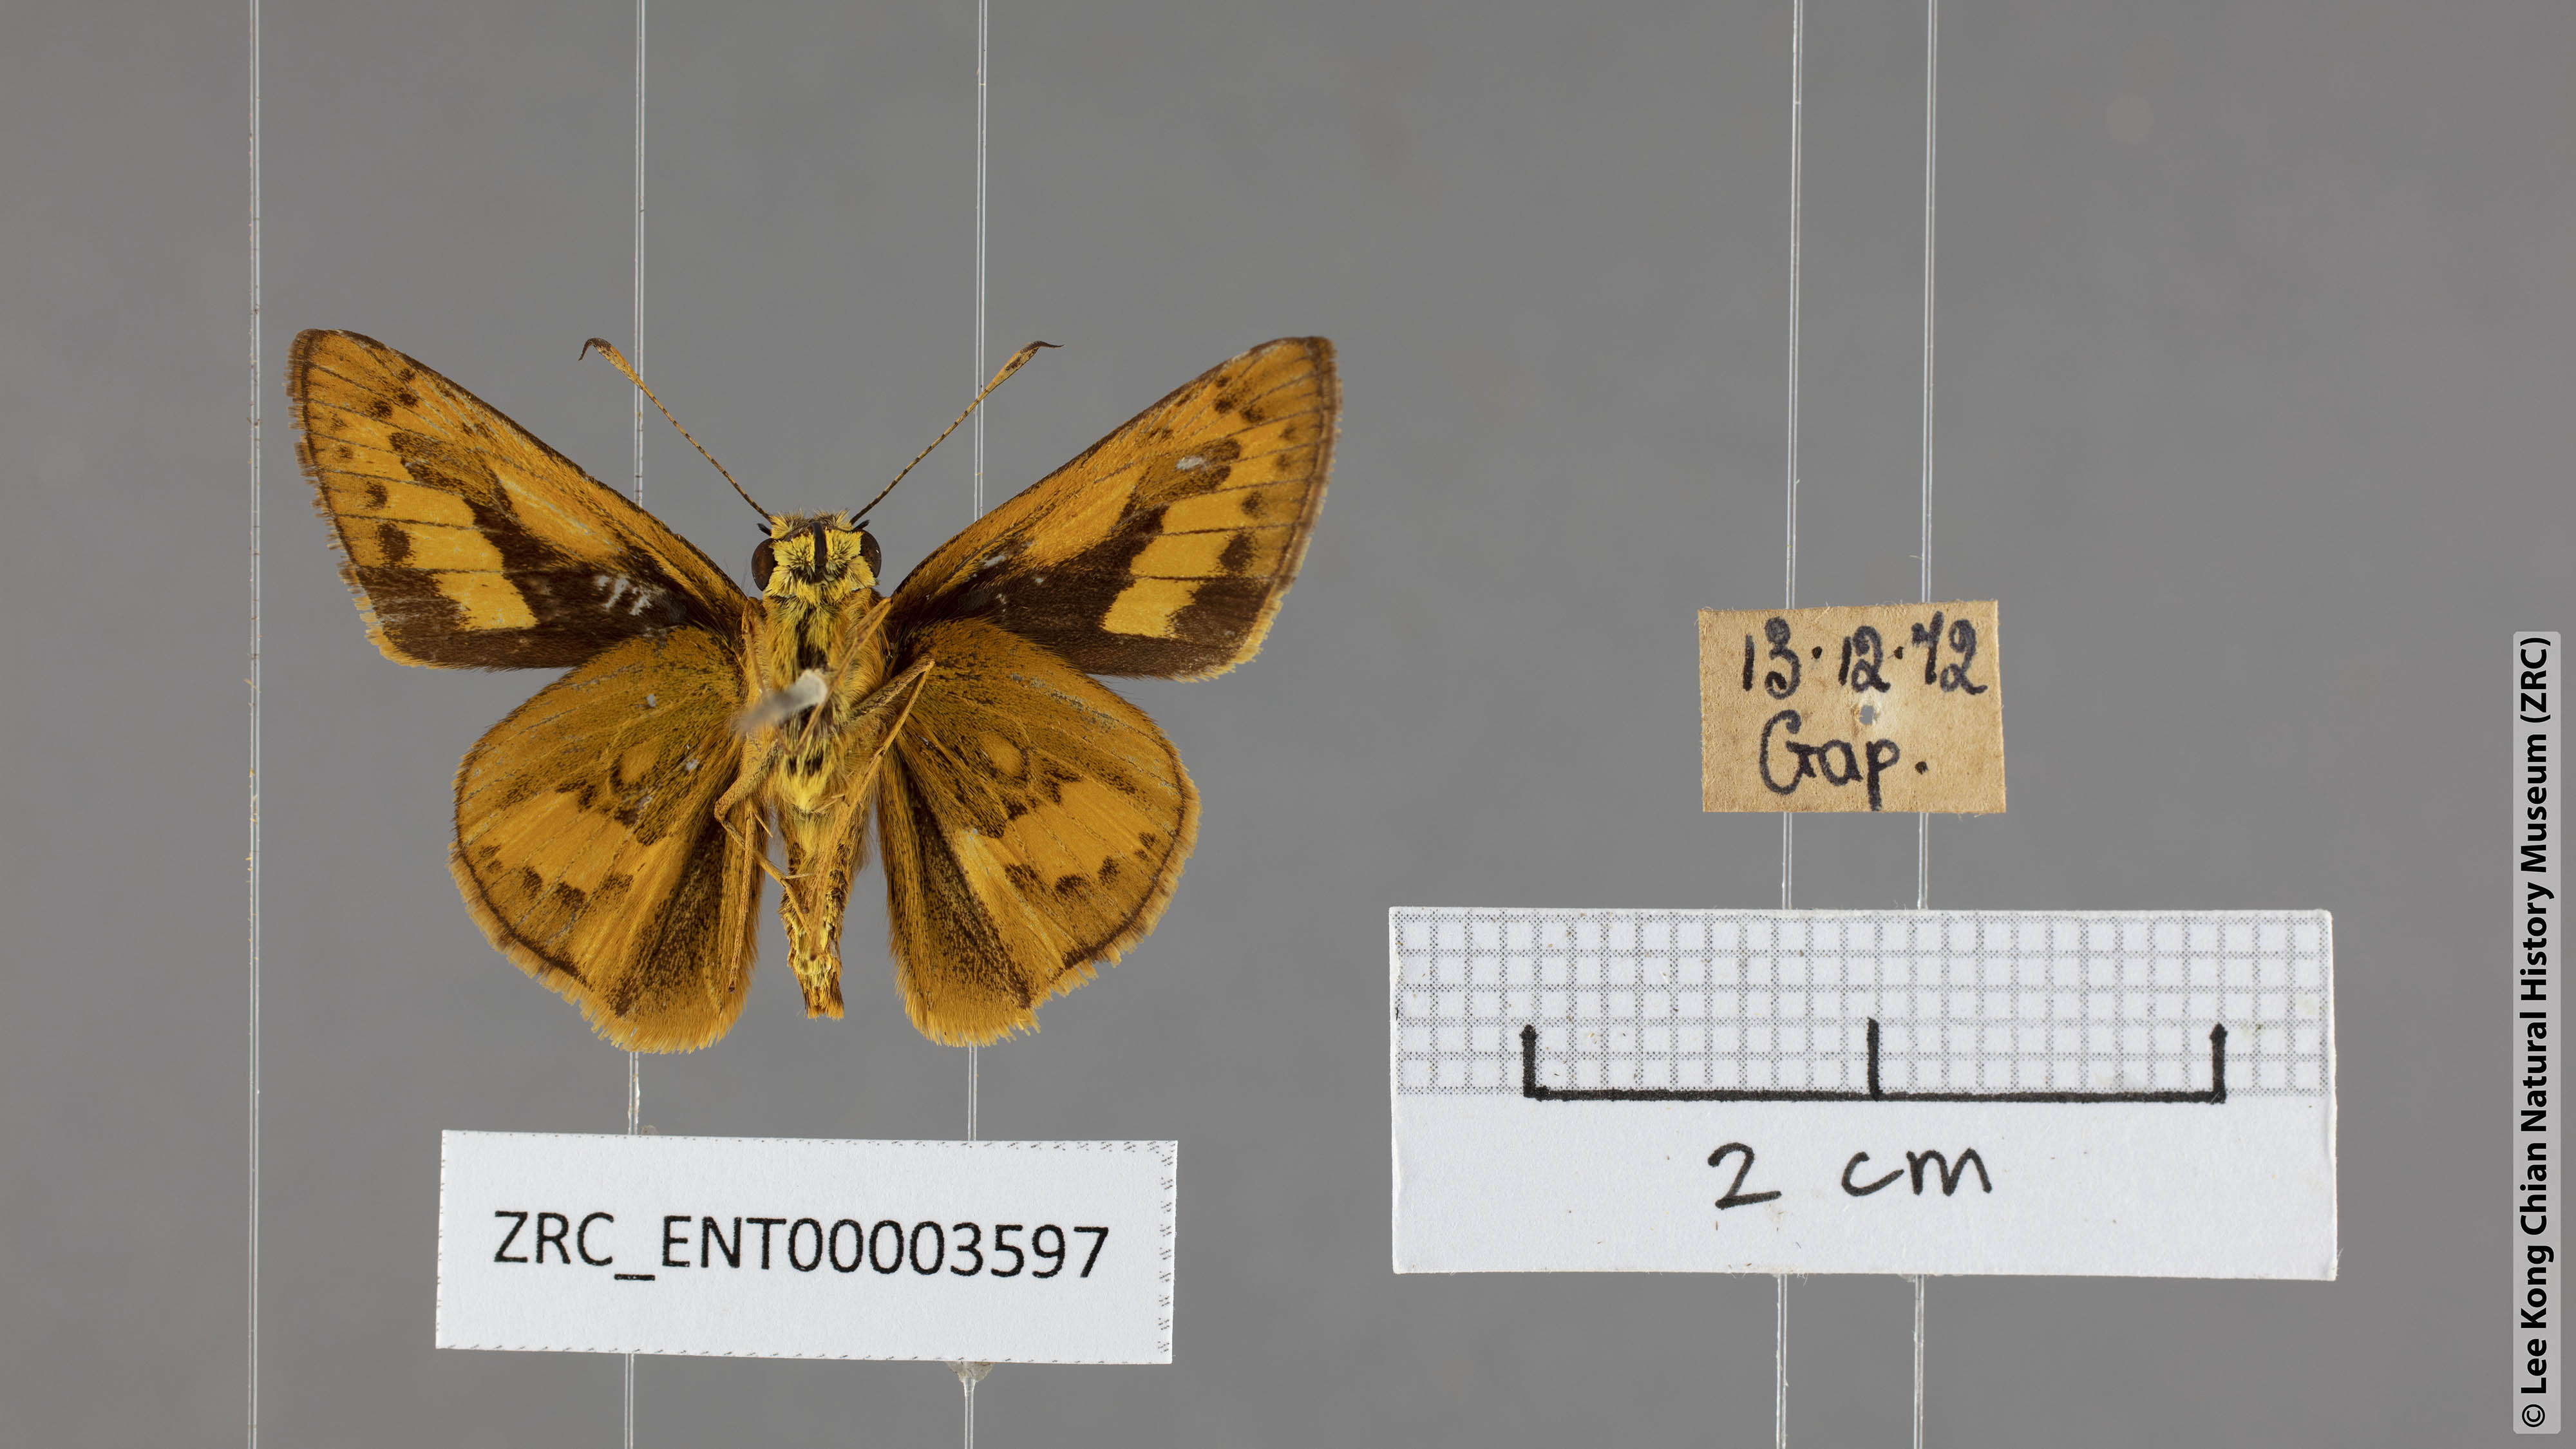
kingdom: Animalia
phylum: Arthropoda
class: Insecta
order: Lepidoptera
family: Hesperiidae
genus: Telicota
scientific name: Telicota ohara
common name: Dark palm dart
